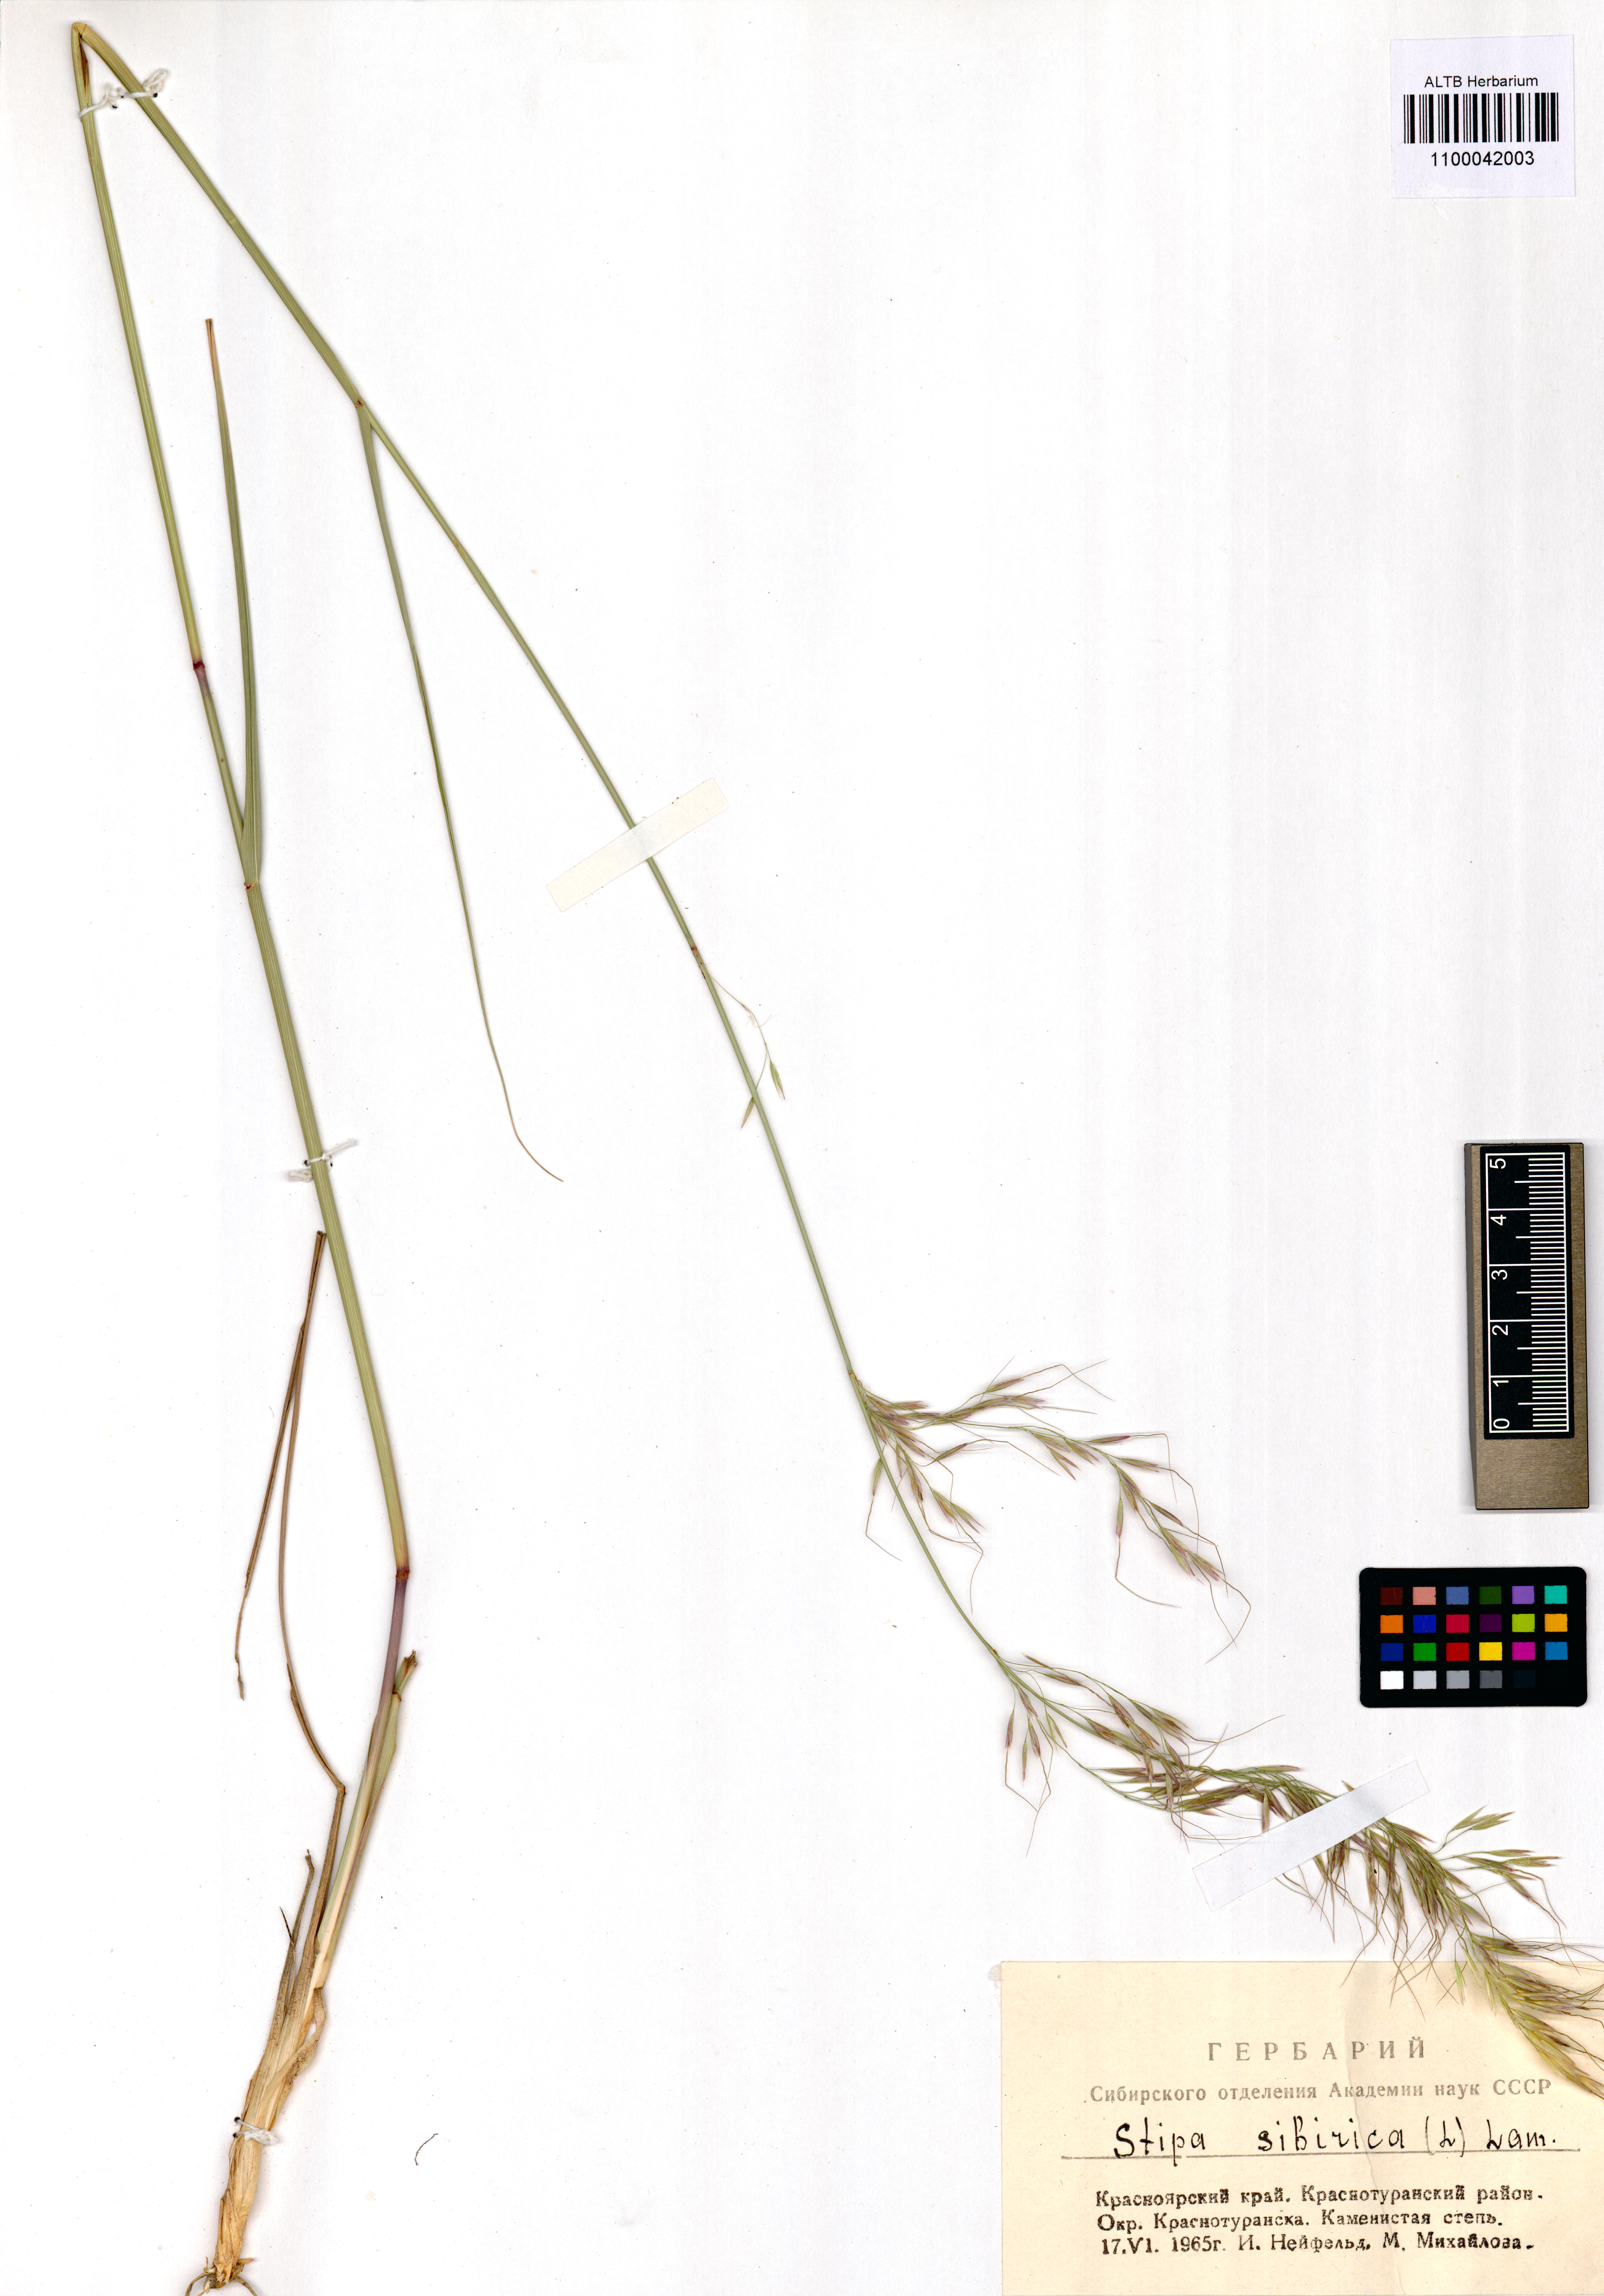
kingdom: Plantae
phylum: Tracheophyta
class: Liliopsida
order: Poales
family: Poaceae
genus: Achnatherum
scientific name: Achnatherum sibiricum
